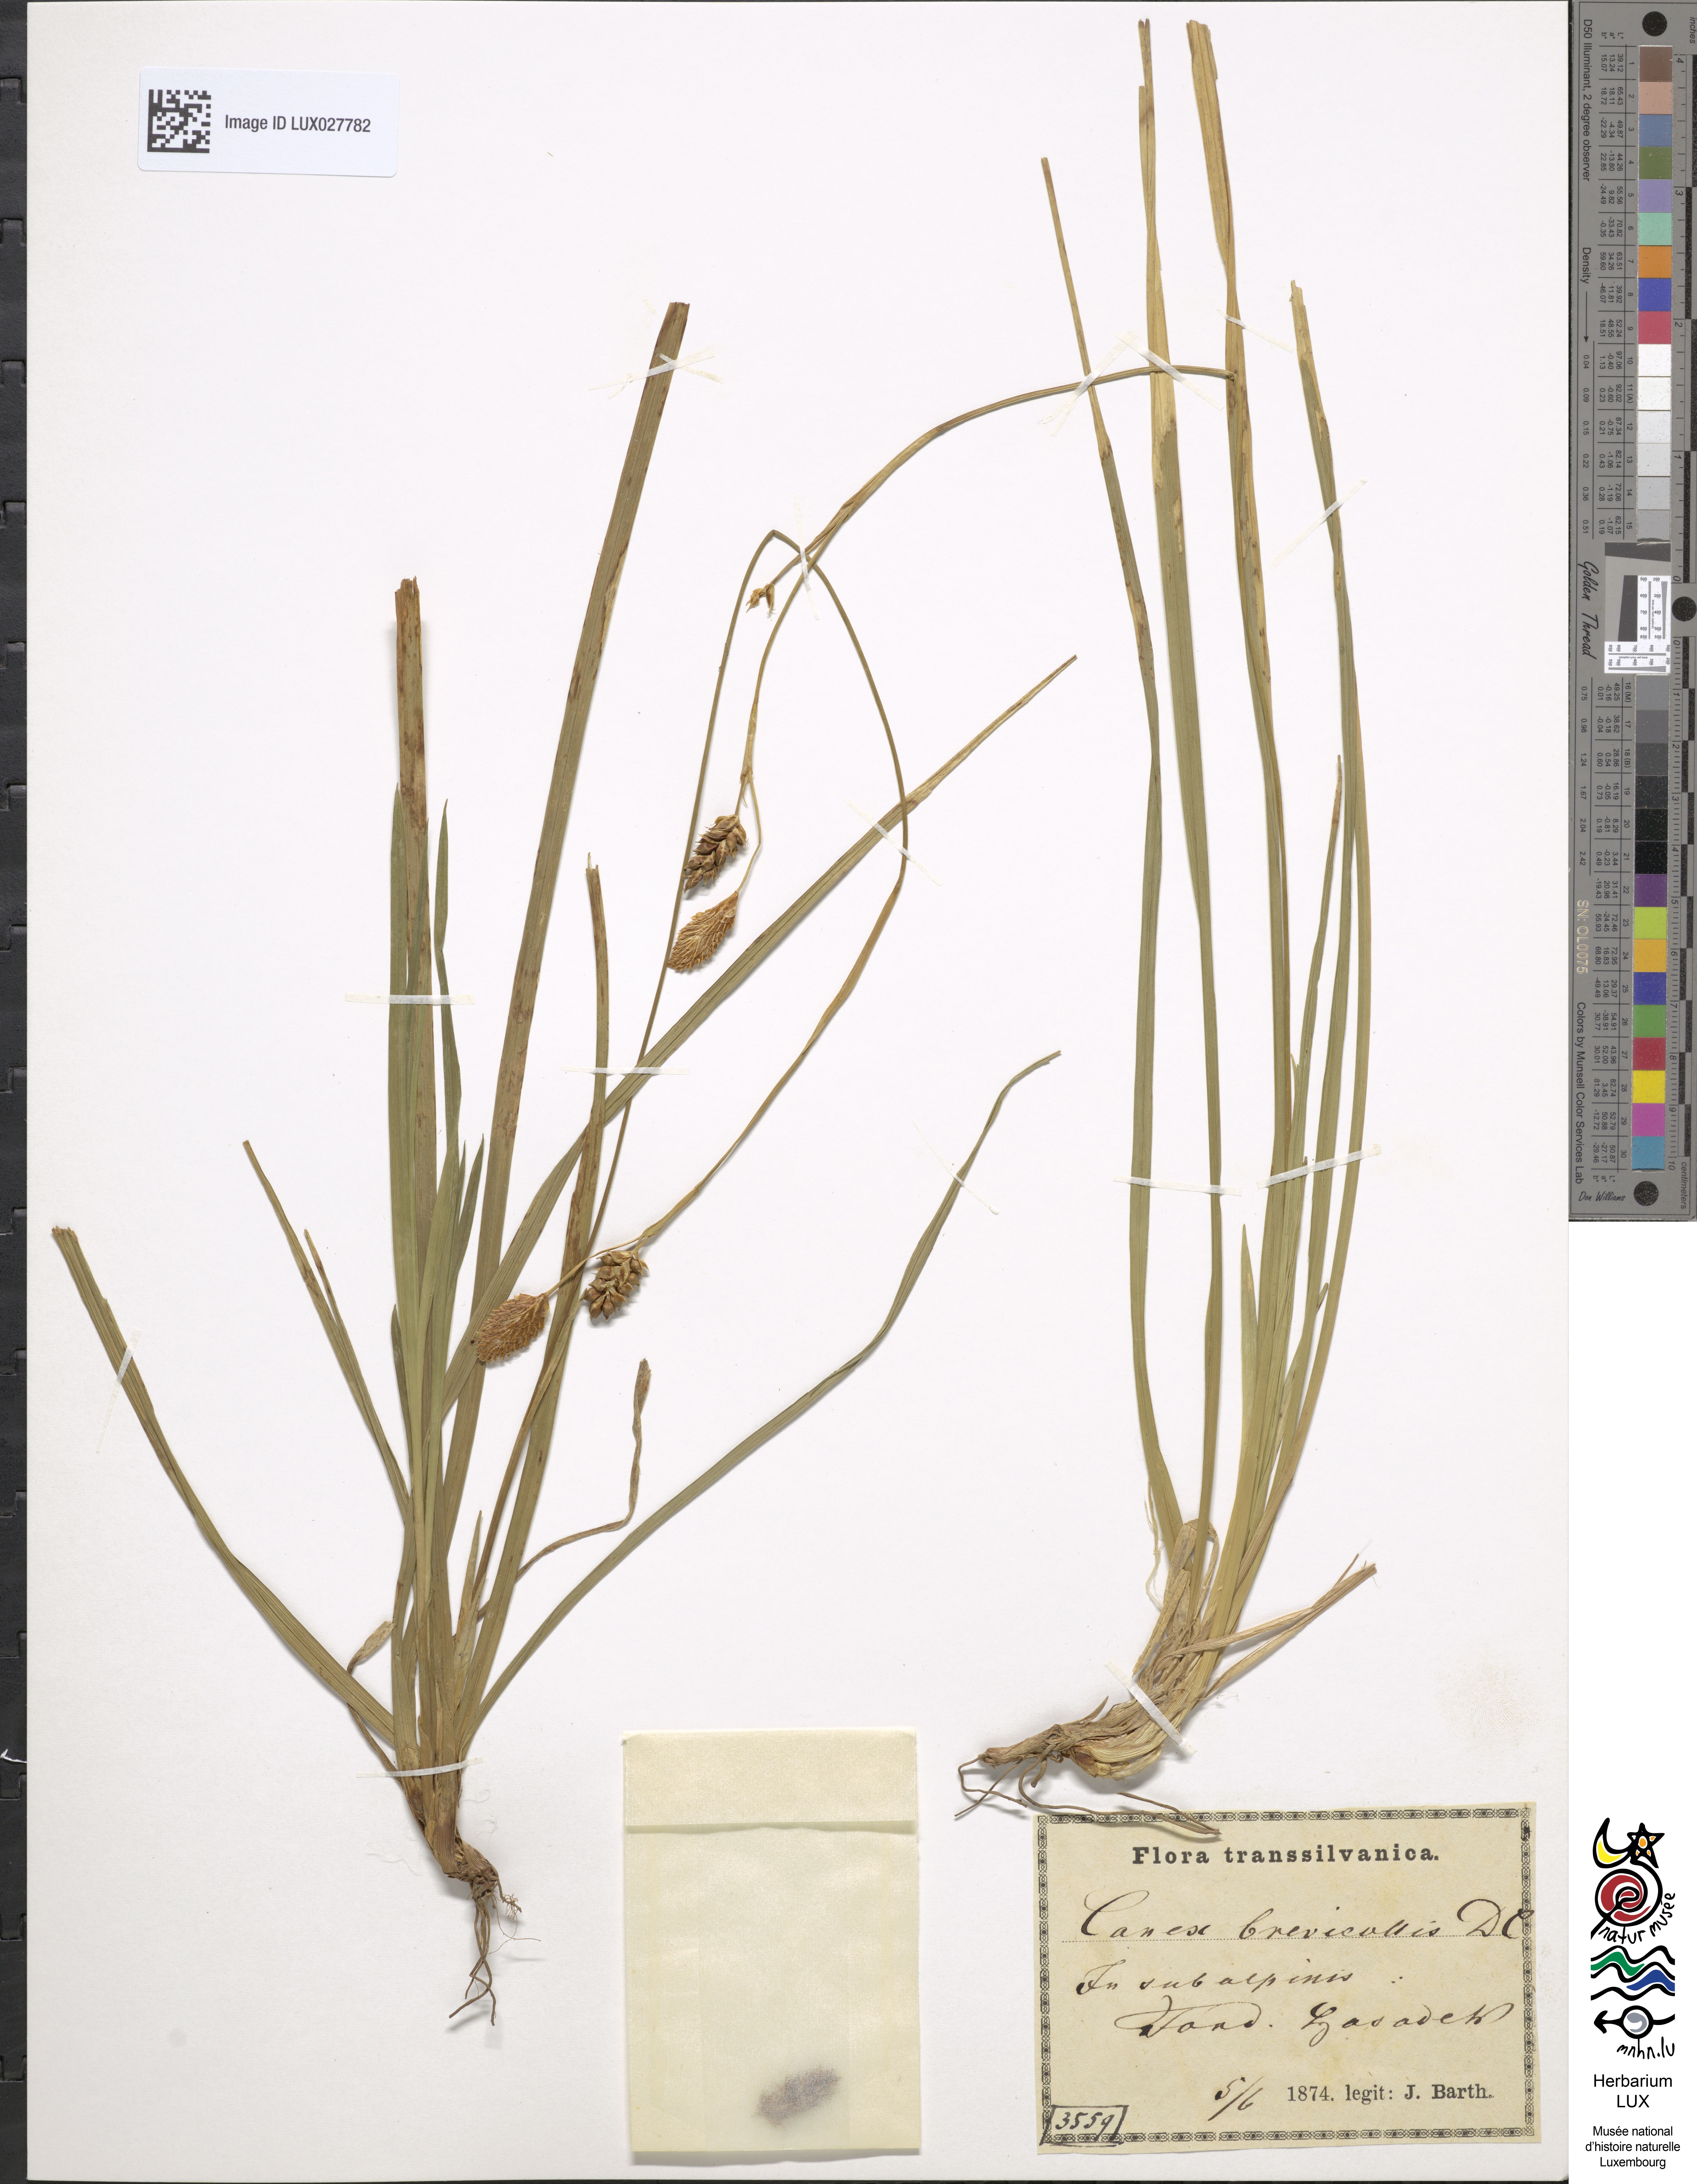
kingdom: Plantae
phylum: Tracheophyta
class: Liliopsida
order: Poales
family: Cyperaceae
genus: Carex
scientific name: Carex brevicollis
